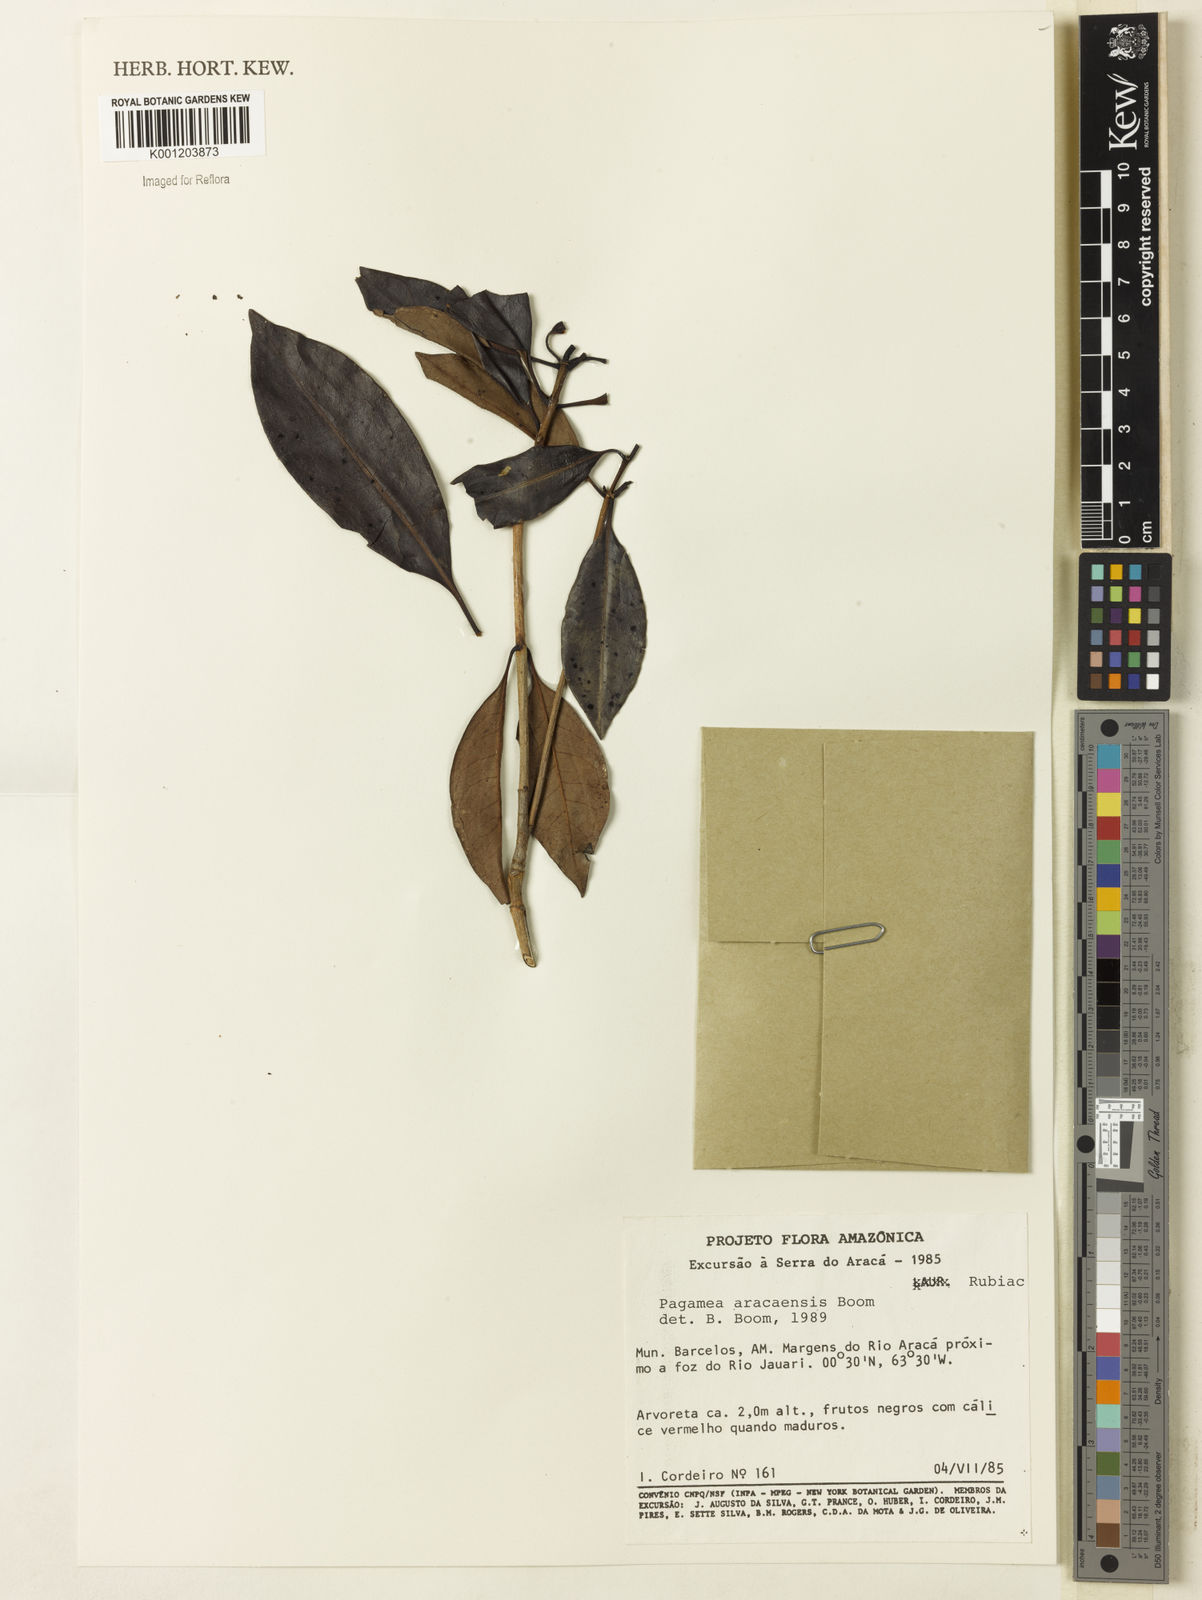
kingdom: Plantae
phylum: Tracheophyta
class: Magnoliopsida
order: Gentianales
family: Rubiaceae
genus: Pagamea
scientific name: Pagamea aracaensis
